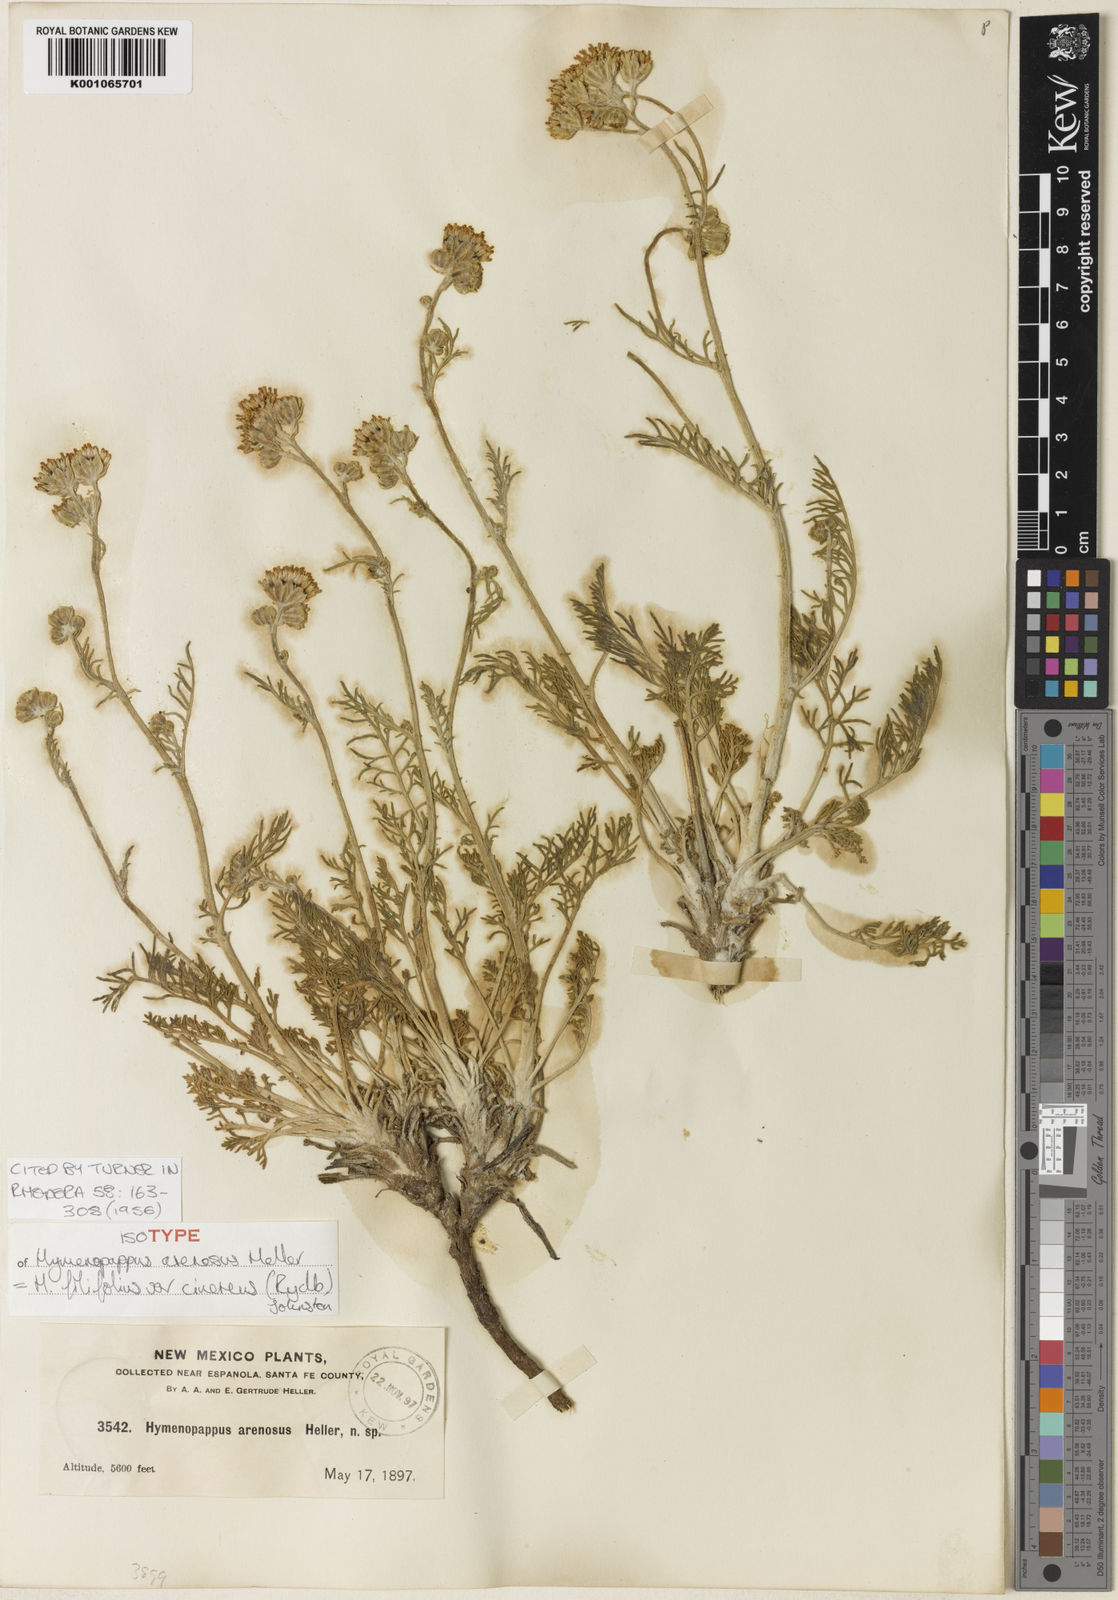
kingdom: Plantae
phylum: Tracheophyta
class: Magnoliopsida
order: Asterales
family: Asteraceae
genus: Hymenopappus
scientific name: Hymenopappus filifolius
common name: Columbia cutleaf
